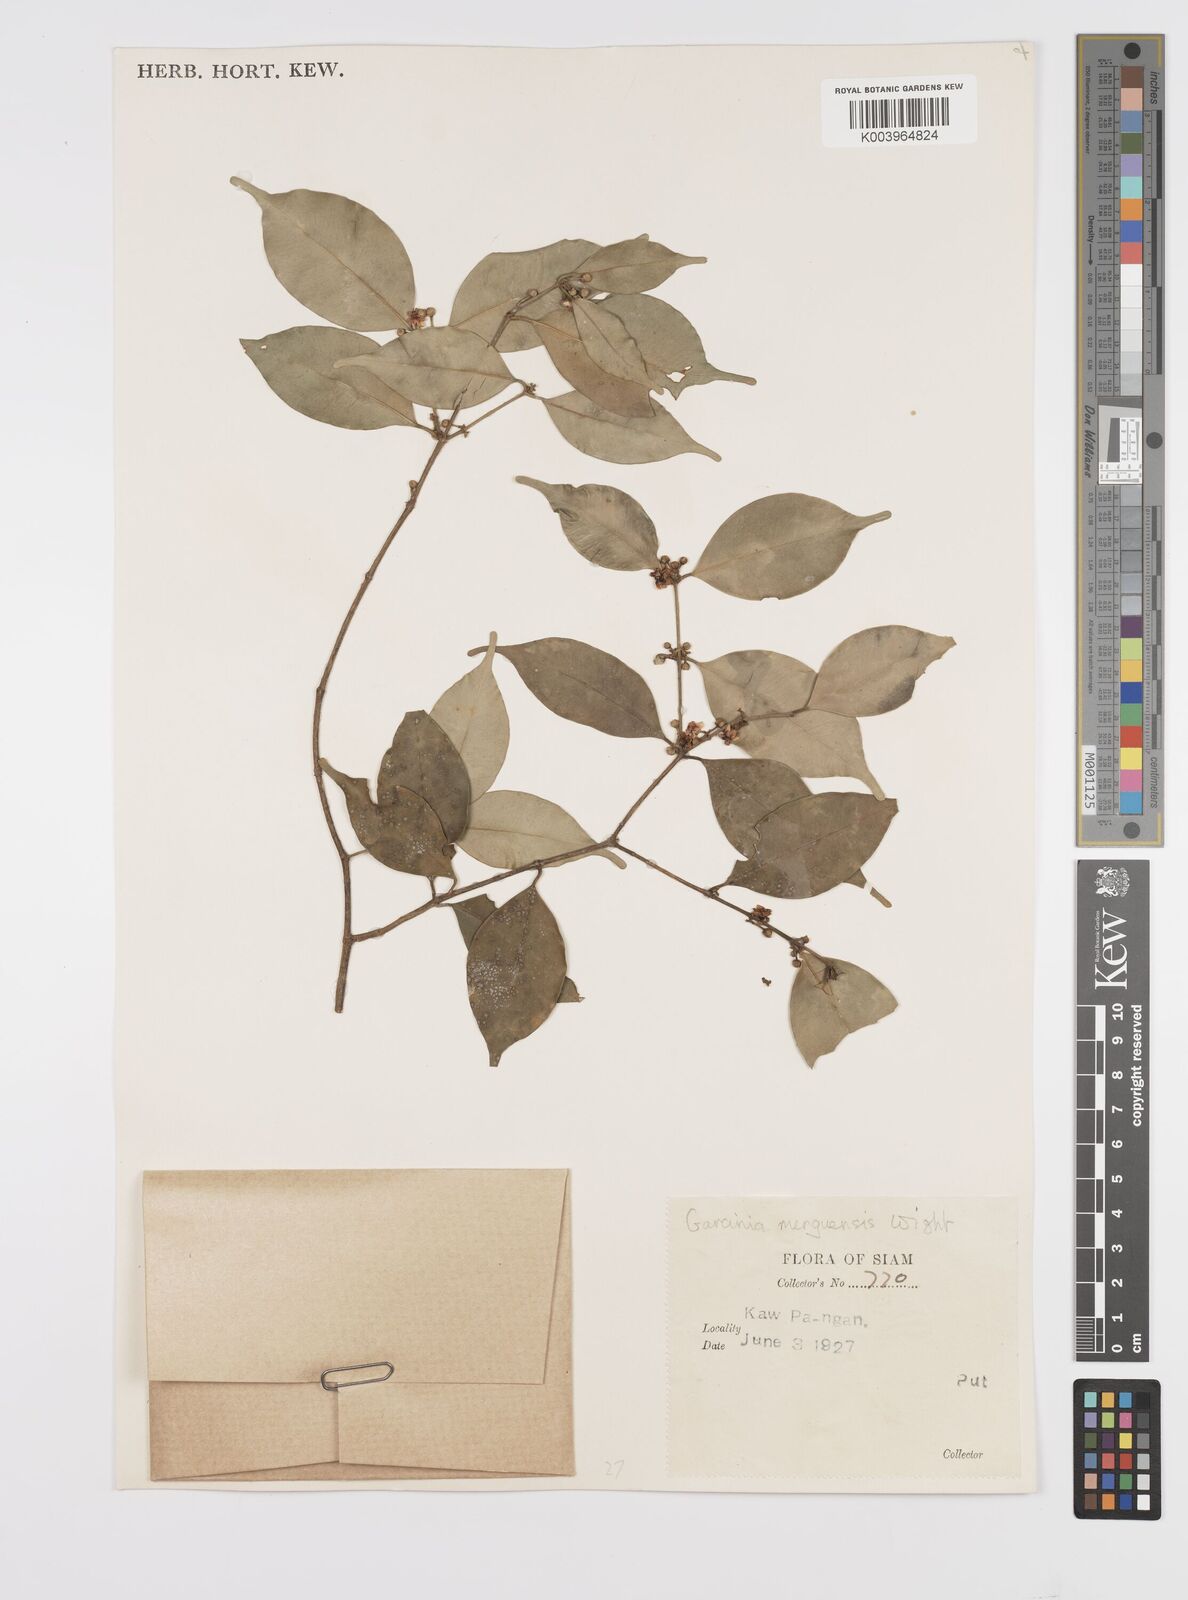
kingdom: Plantae
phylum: Tracheophyta
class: Magnoliopsida
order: Malpighiales
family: Clusiaceae
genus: Garcinia
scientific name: Garcinia
